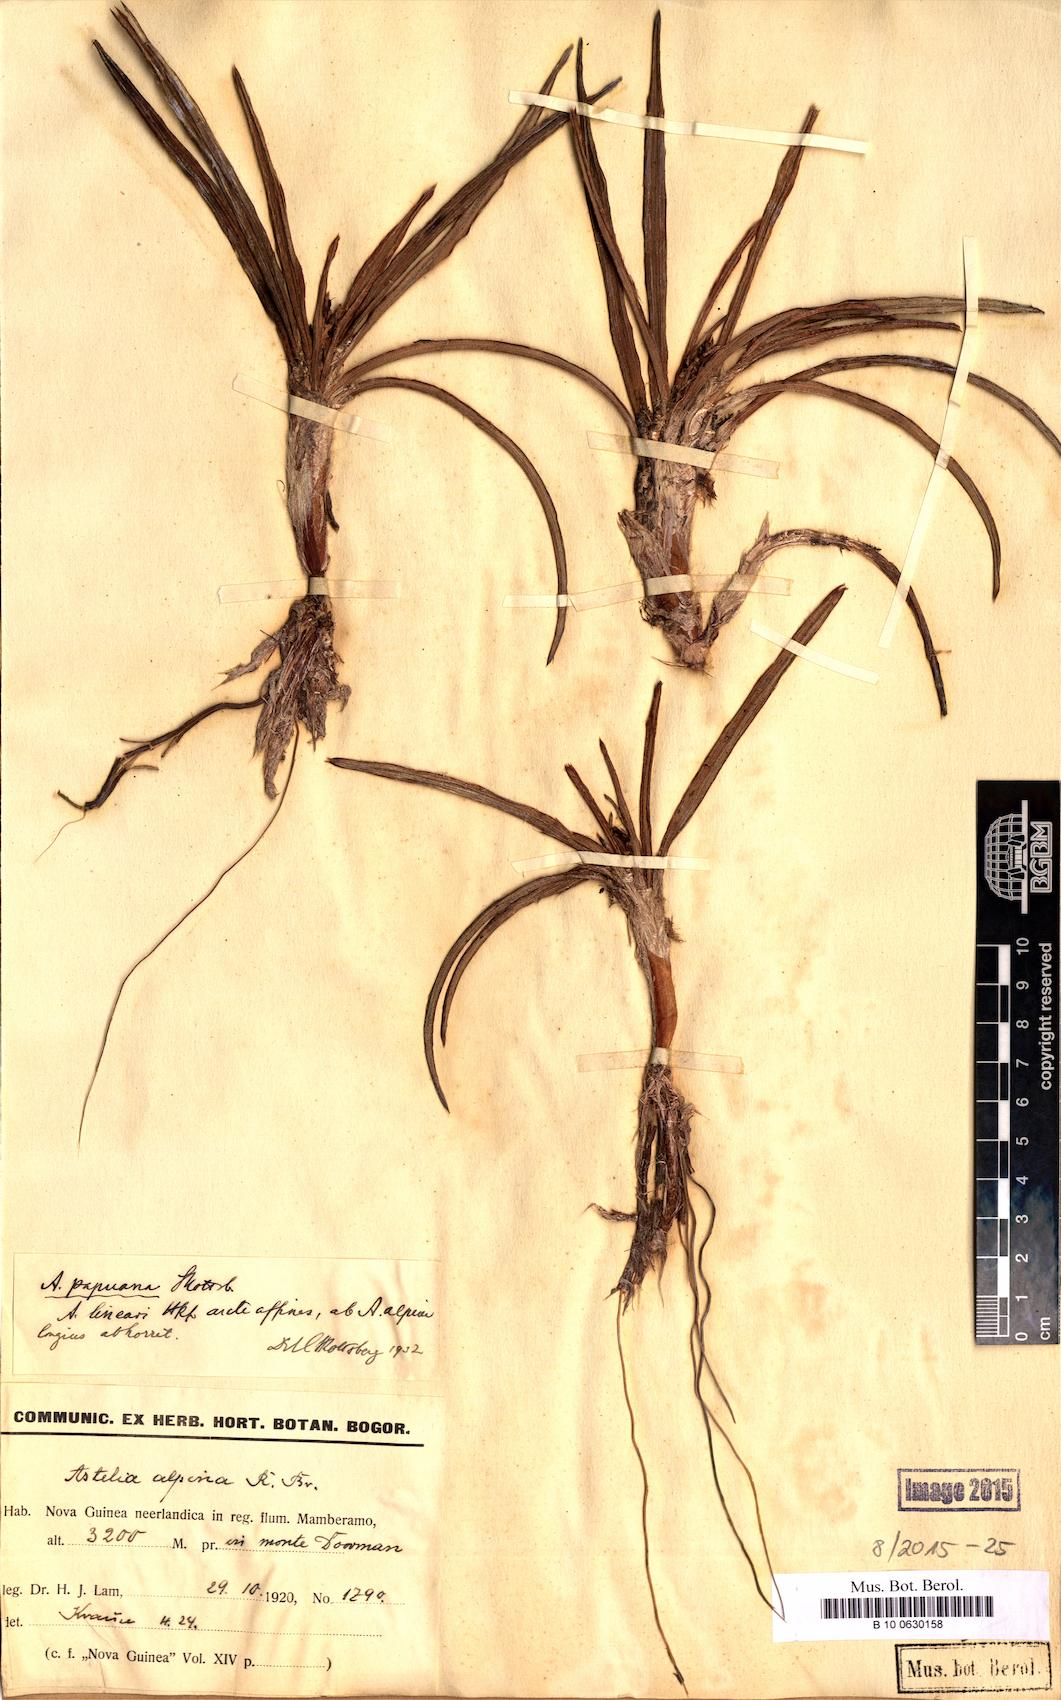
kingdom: Plantae
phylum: Tracheophyta
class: Liliopsida
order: Asparagales
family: Asteliaceae
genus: Astelia
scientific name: Astelia papuana
